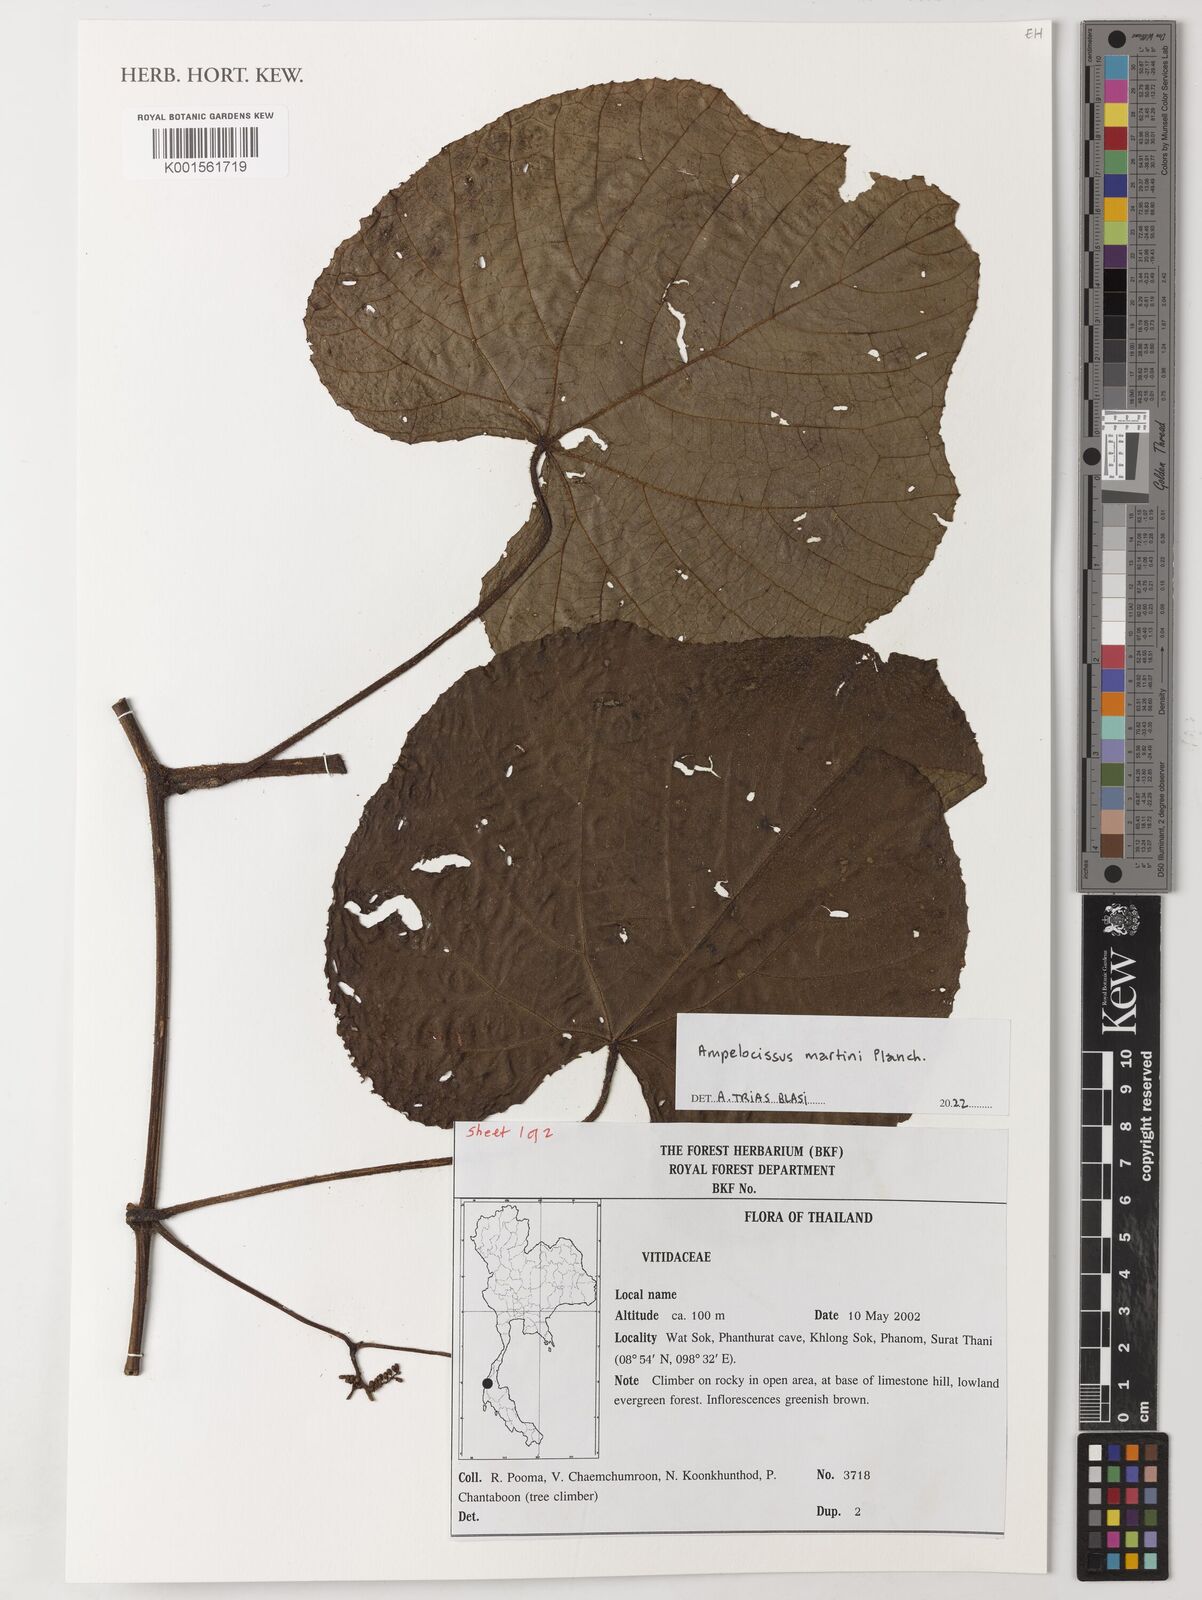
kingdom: Plantae
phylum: Tracheophyta
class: Magnoliopsida
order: Vitales
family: Vitaceae
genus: Ampelocissus
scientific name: Ampelocissus martini
